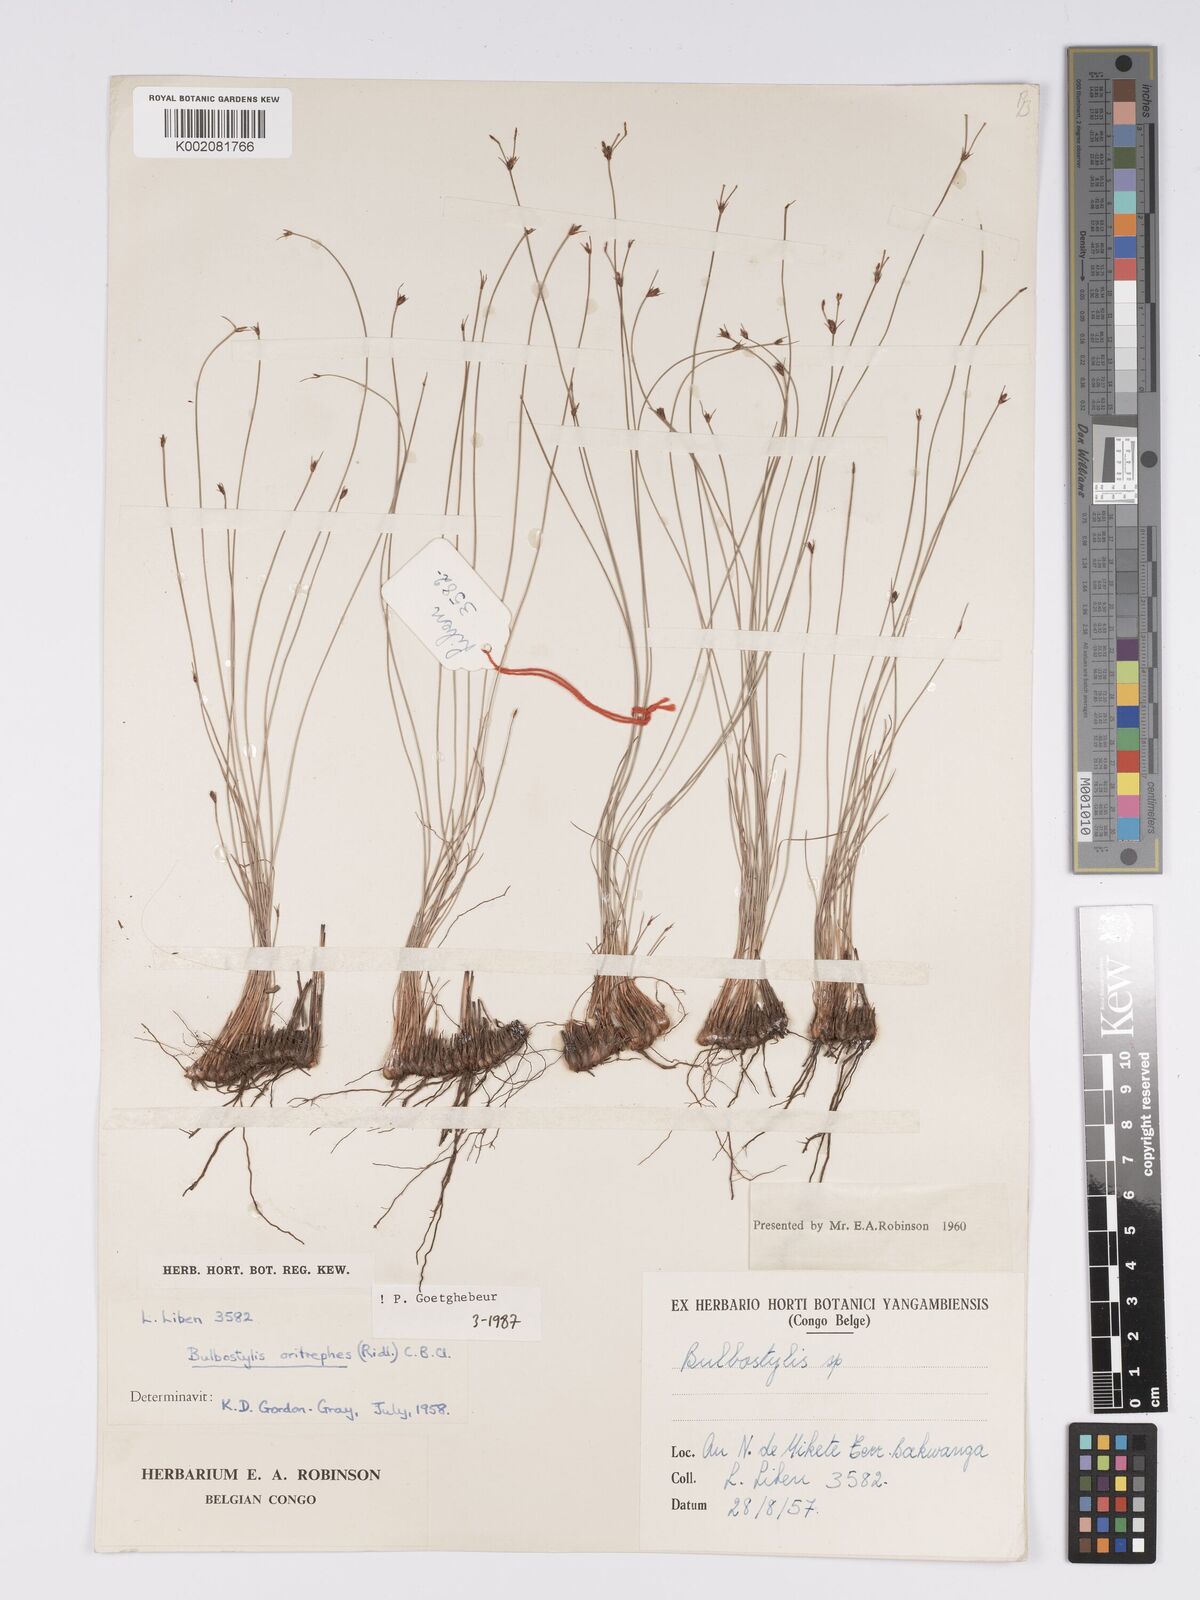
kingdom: Plantae
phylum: Tracheophyta
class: Liliopsida
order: Poales
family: Cyperaceae
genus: Bulbostylis
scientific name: Bulbostylis oritrephes
